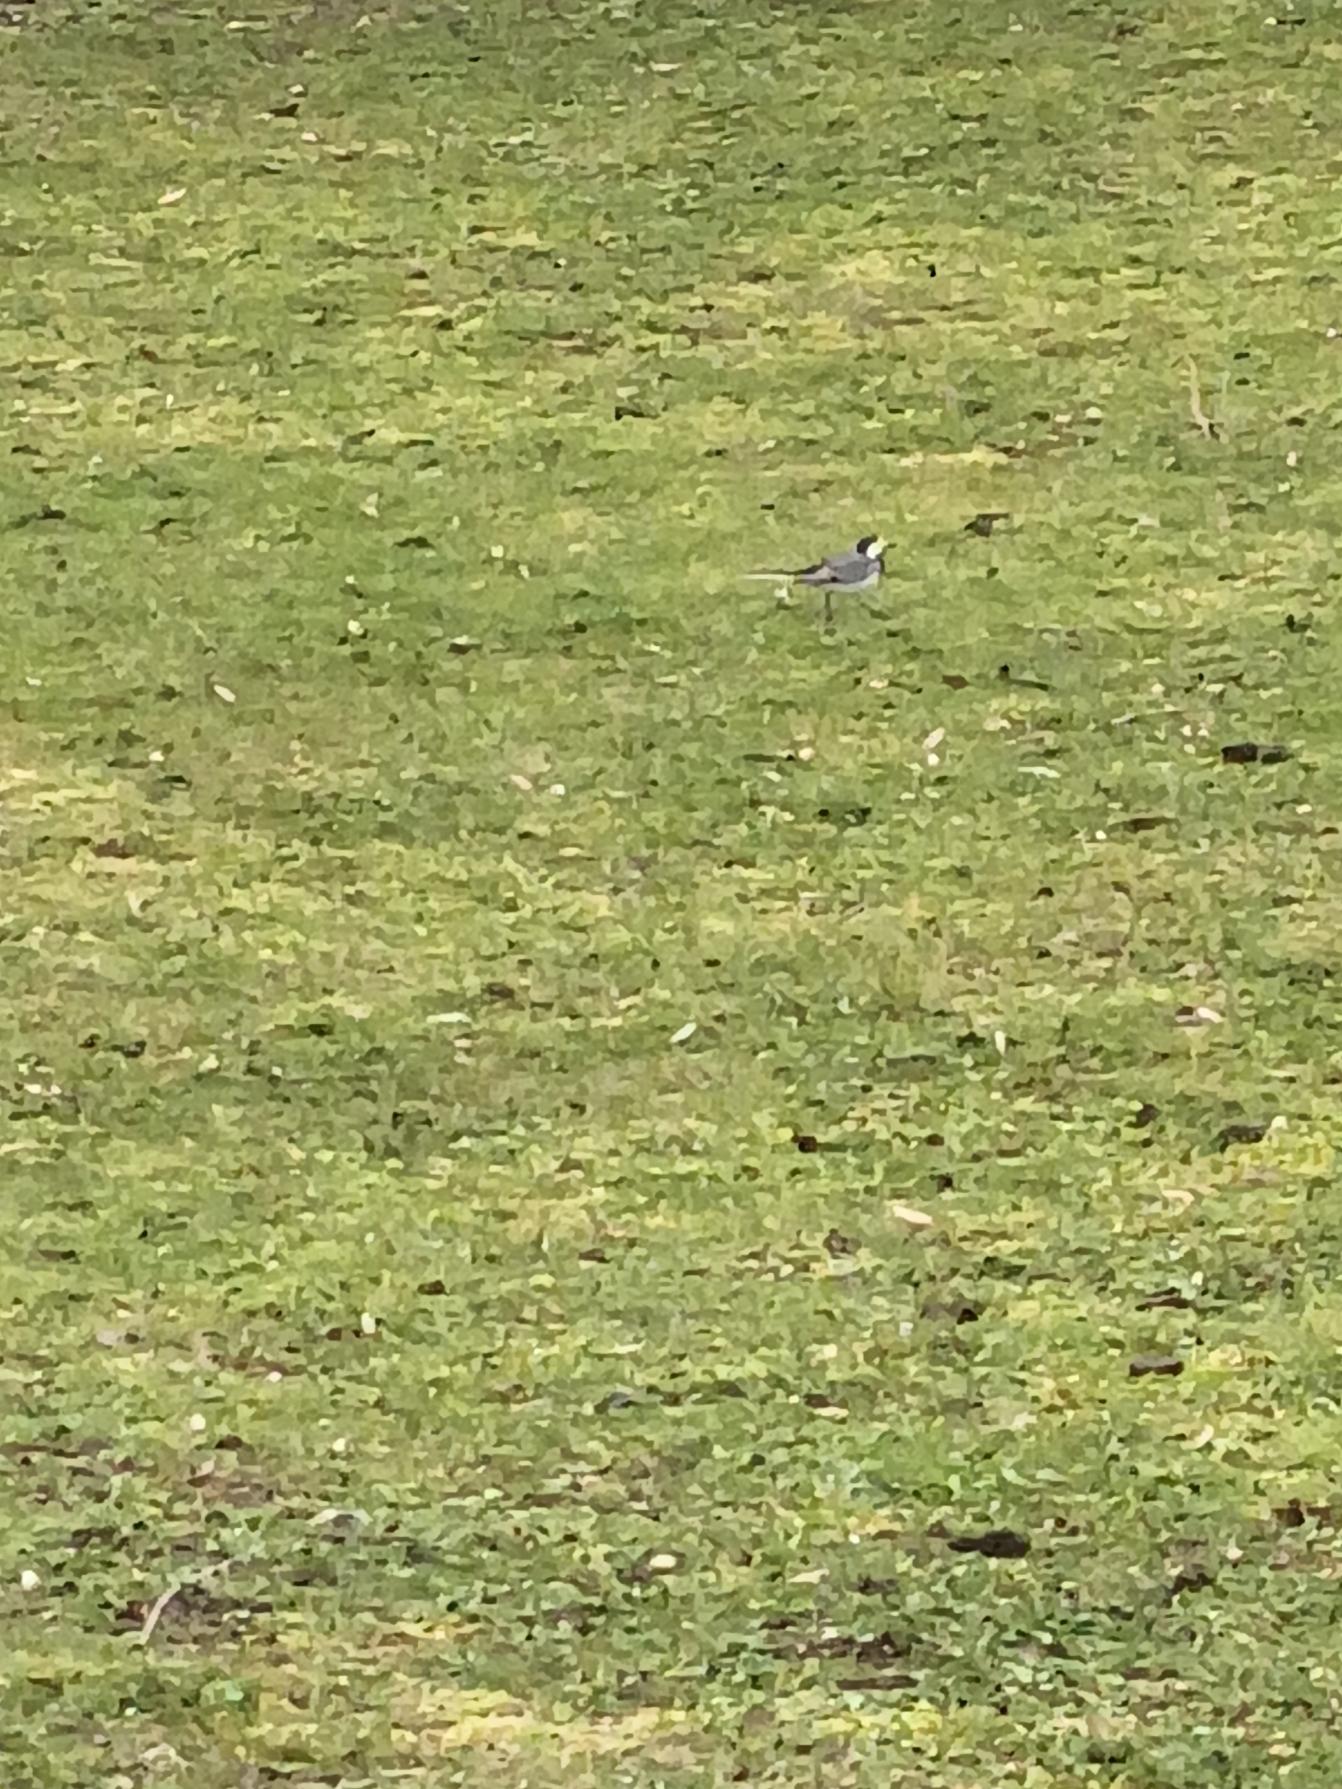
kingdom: Animalia
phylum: Chordata
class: Aves
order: Passeriformes
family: Motacillidae
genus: Motacilla
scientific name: Motacilla alba
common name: Hvid vipstjert
